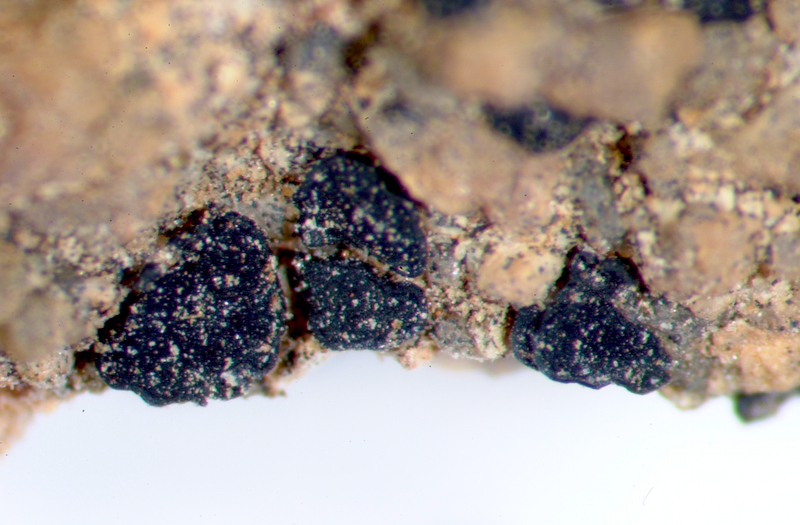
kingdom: Fungi
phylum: Ascomycota
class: Lecanoromycetes
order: Caliciales
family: Caliciaceae
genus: Buellia
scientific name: Buellia
